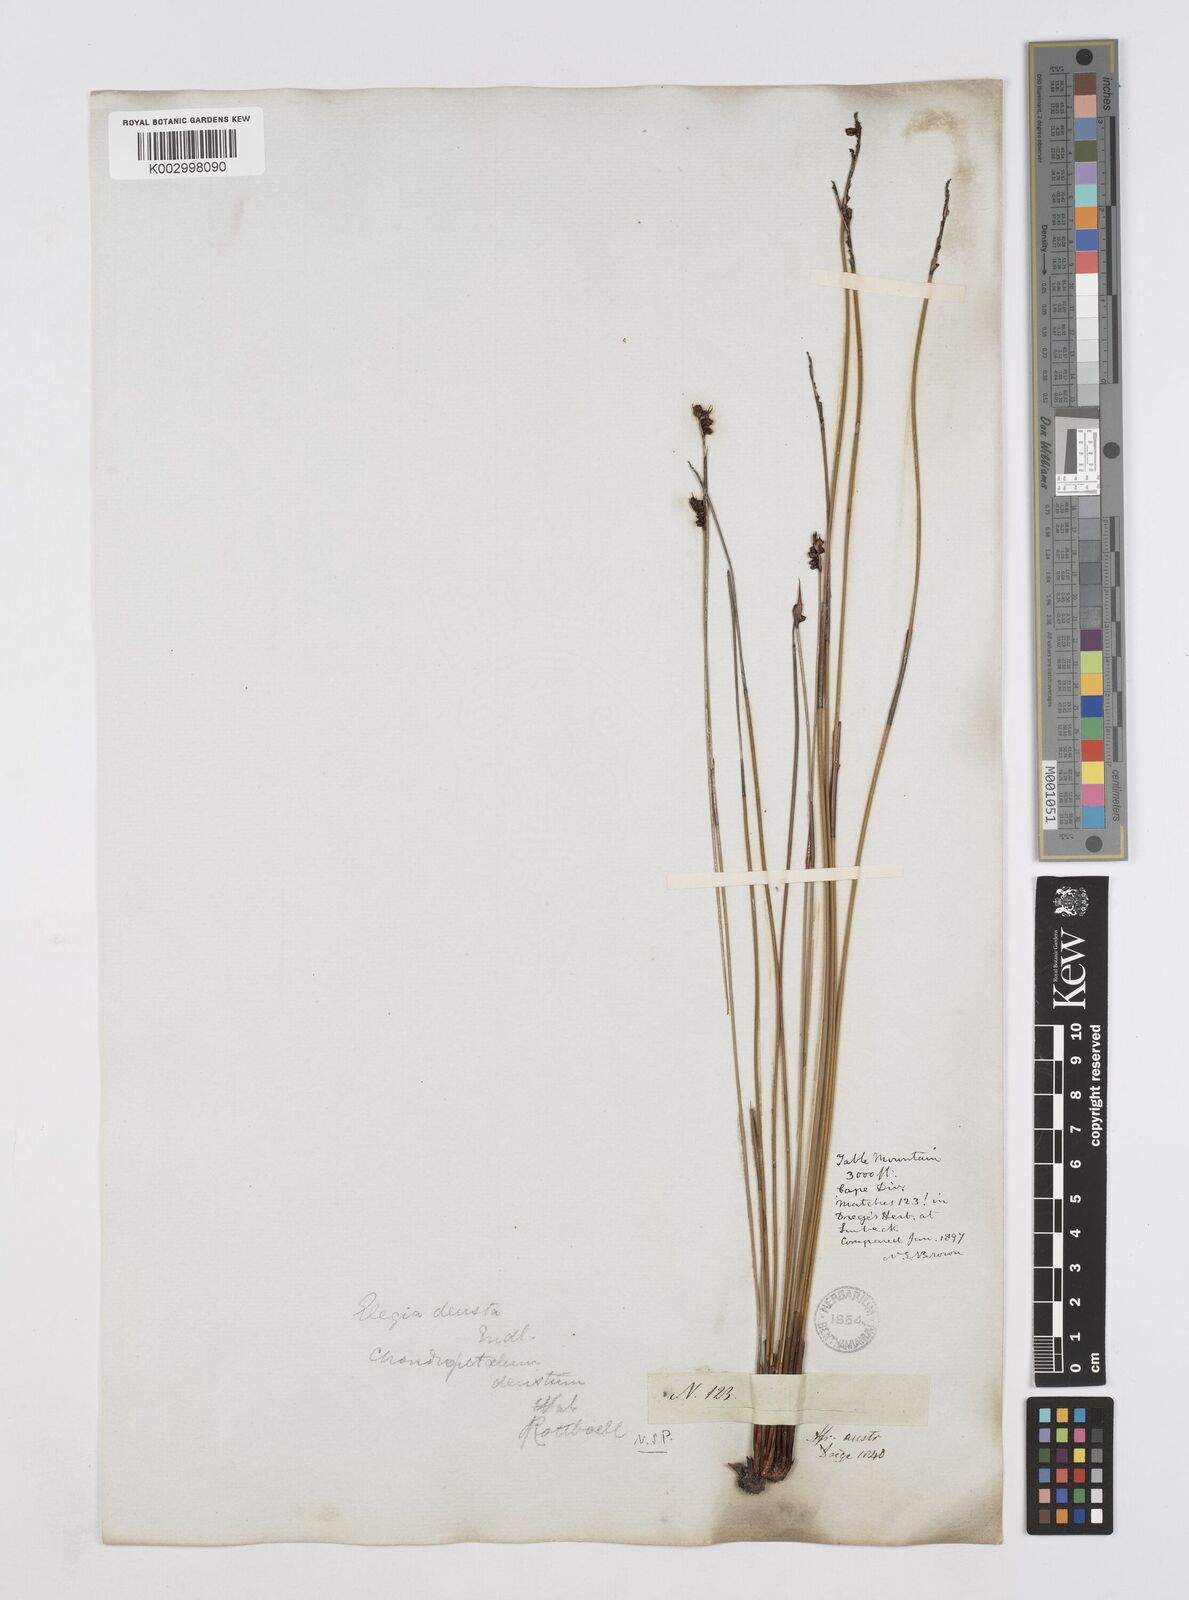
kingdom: Plantae
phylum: Tracheophyta
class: Liliopsida
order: Poales
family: Restionaceae
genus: Elegia
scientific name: Elegia deusta
